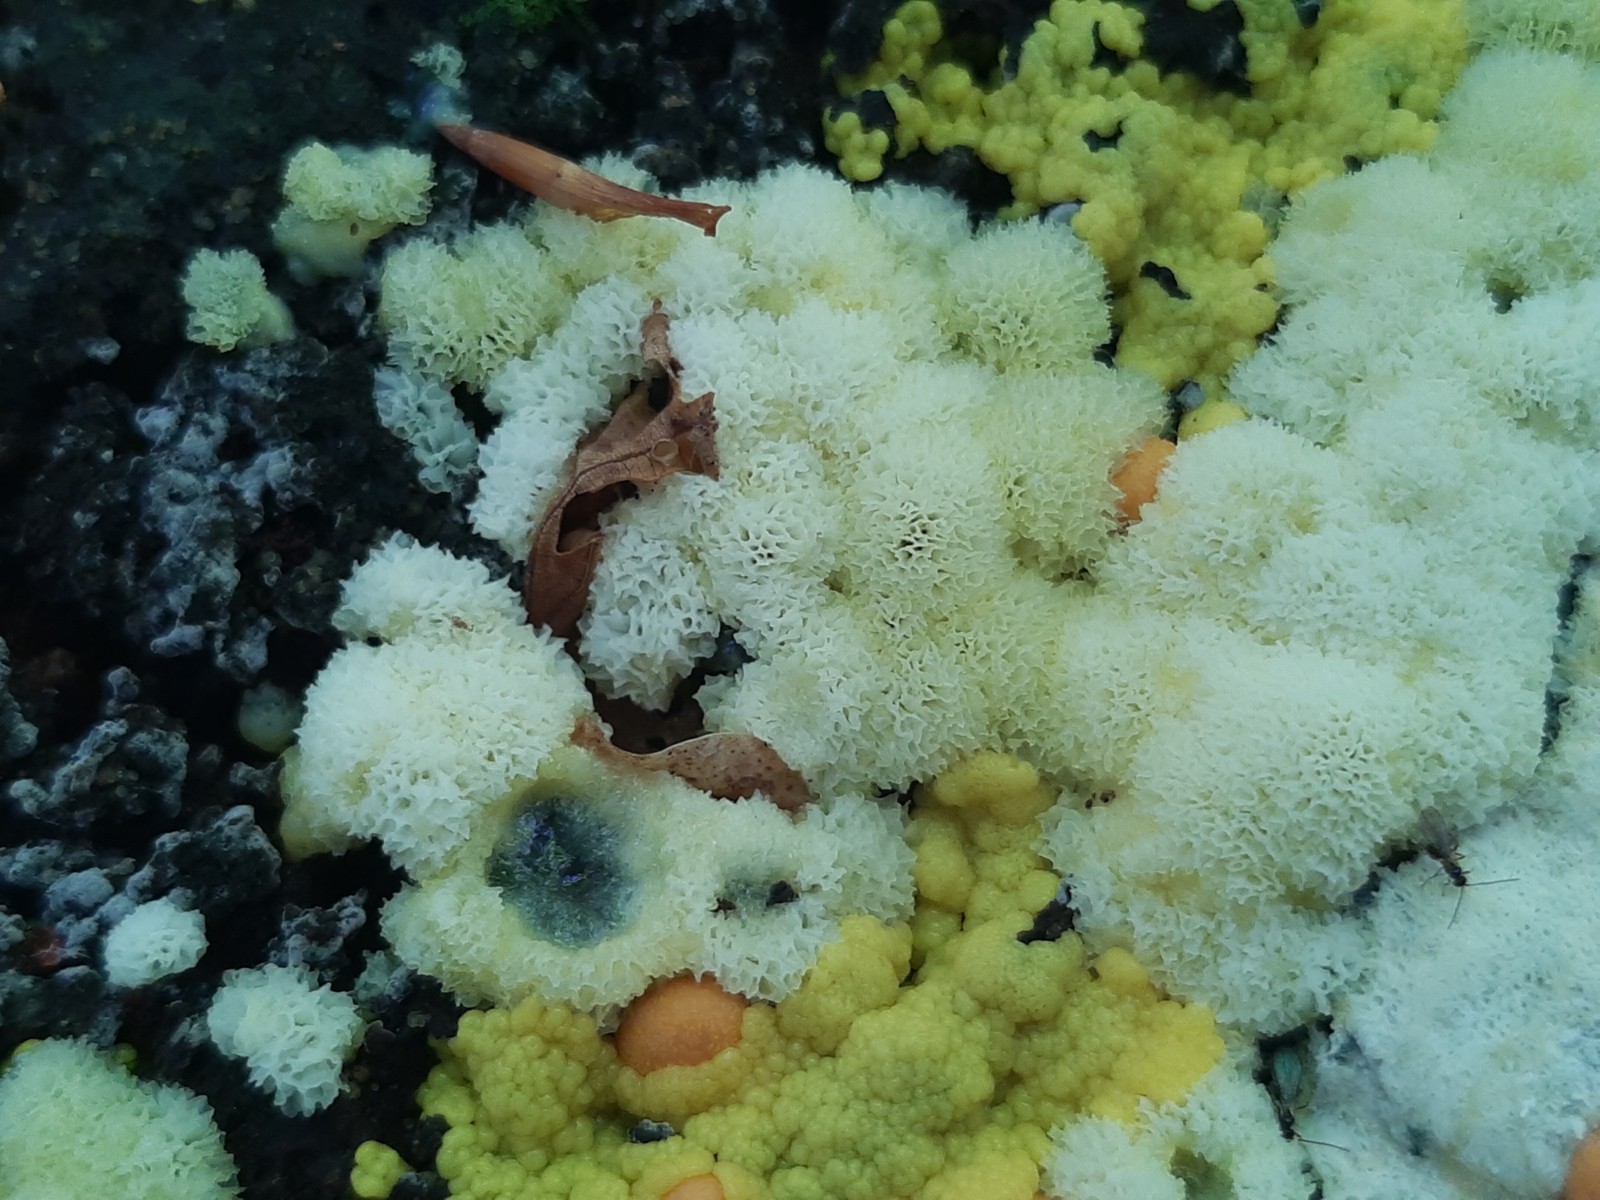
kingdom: Protozoa
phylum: Mycetozoa
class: Protosteliomycetes
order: Ceratiomyxales
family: Ceratiomyxaceae
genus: Ceratiomyxa
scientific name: Ceratiomyxa fruticulosa
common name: Honeycomb coral slime mold
